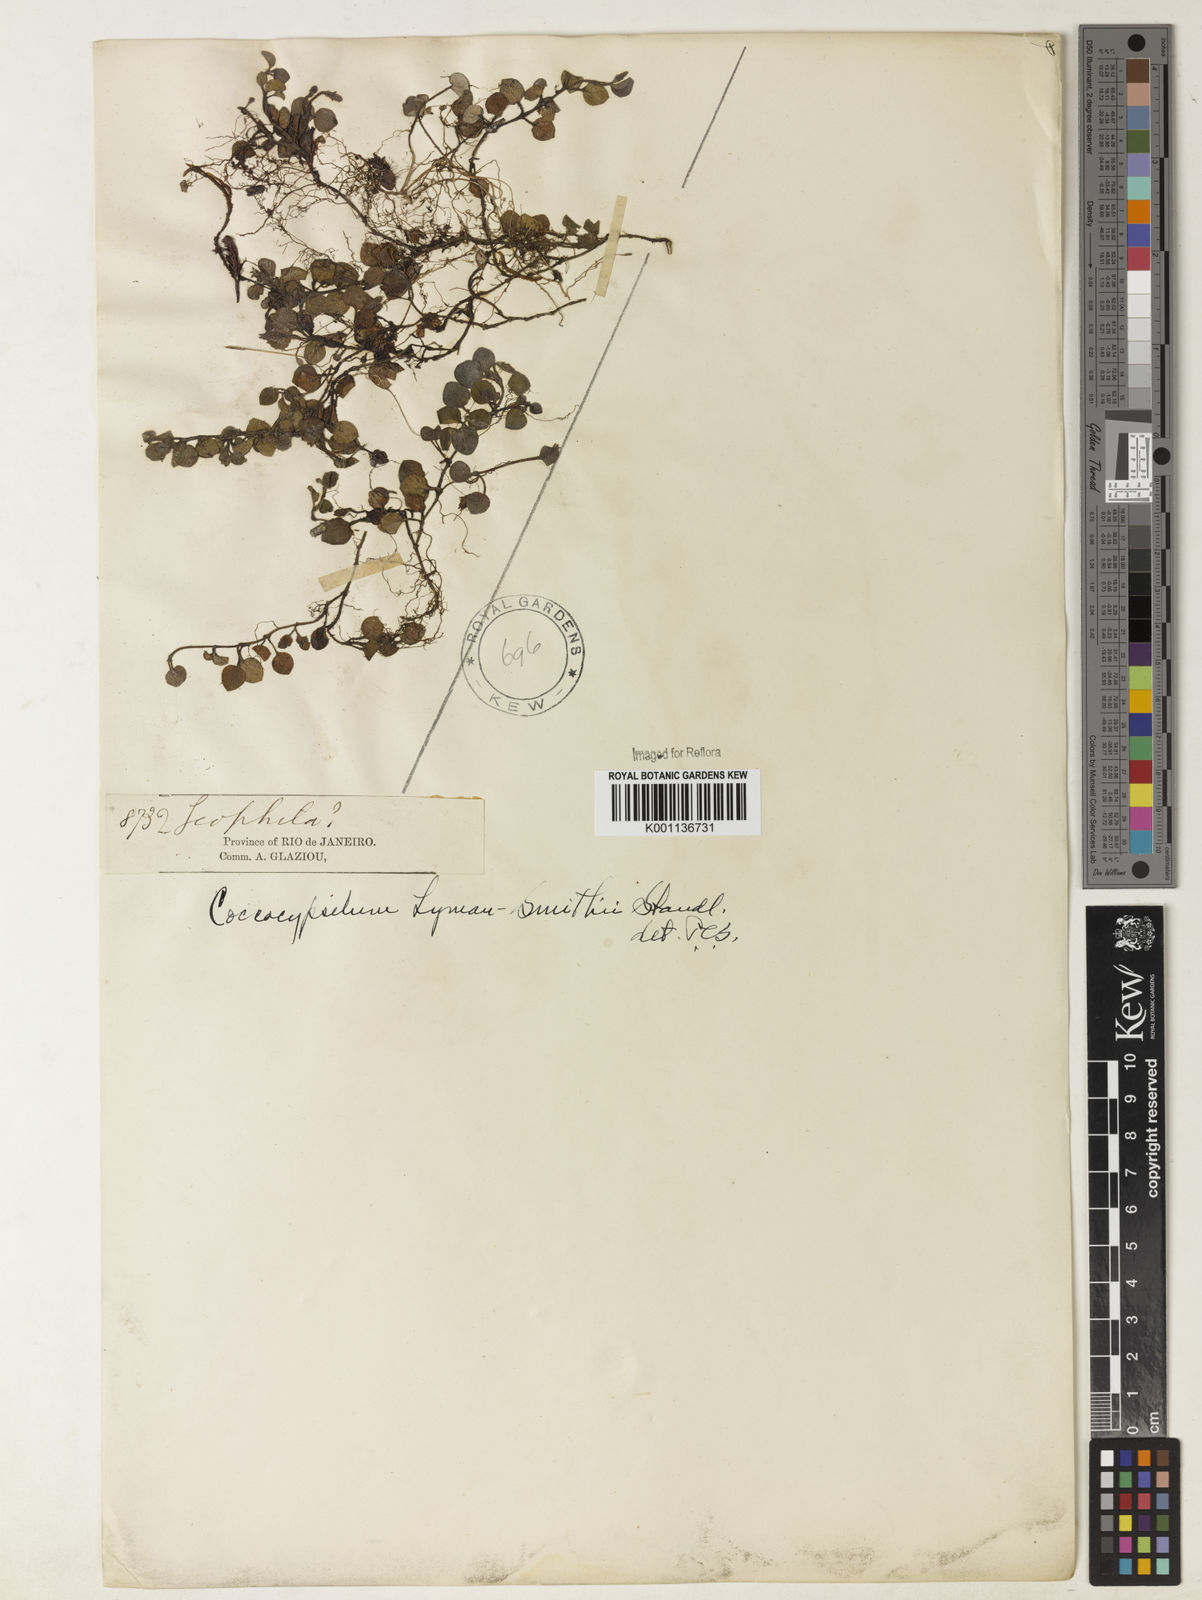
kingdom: Plantae
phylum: Tracheophyta
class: Magnoliopsida
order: Gentianales
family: Rubiaceae
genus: Coccocypselum
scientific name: Coccocypselum lymansmithii
